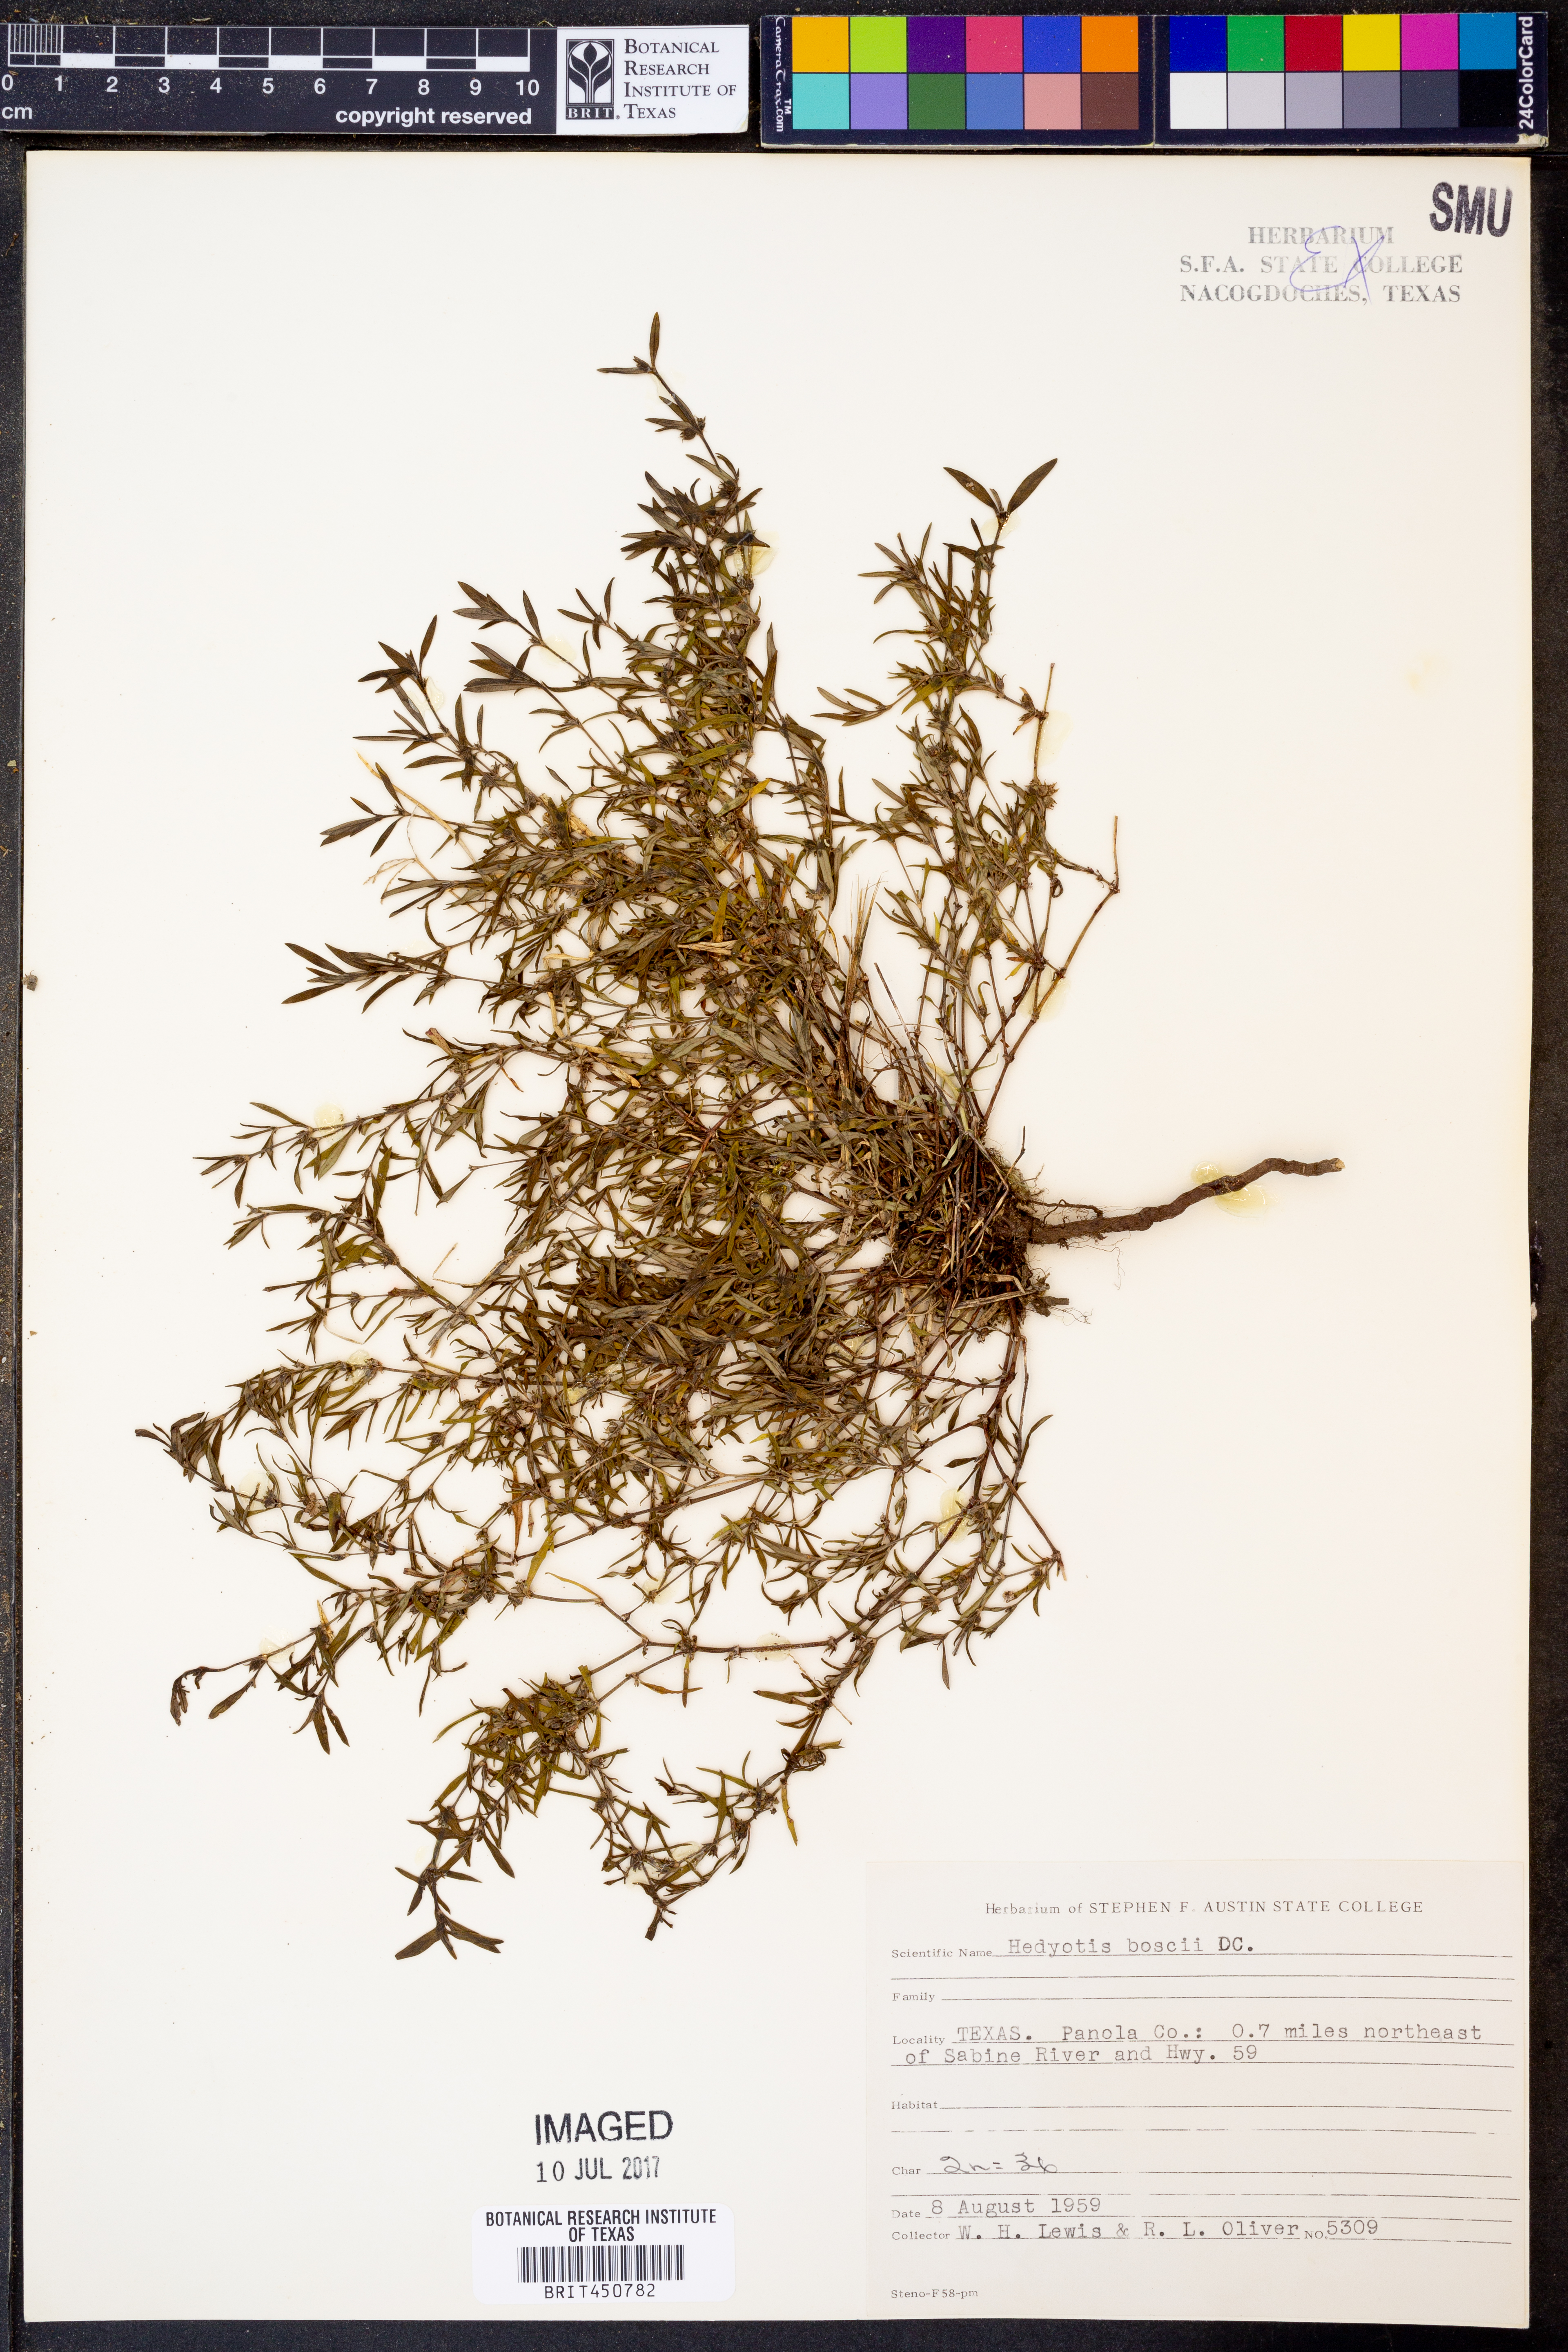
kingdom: Plantae
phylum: Tracheophyta
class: Magnoliopsida
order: Gentianales
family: Rubiaceae
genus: Oldenlandia
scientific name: Oldenlandia boscii
